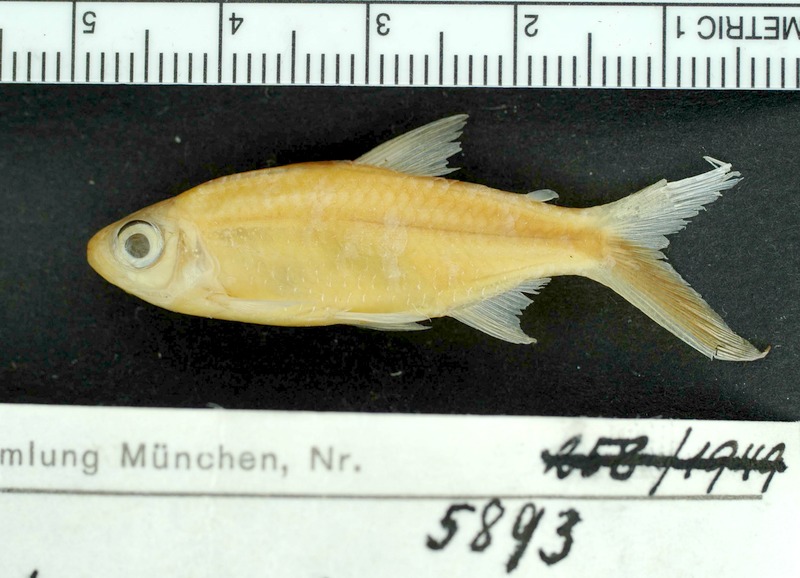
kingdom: Animalia
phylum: Chordata
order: Characiformes
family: Characidae
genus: Thayeria
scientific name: Thayeria obliqua
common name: Penguin fish
